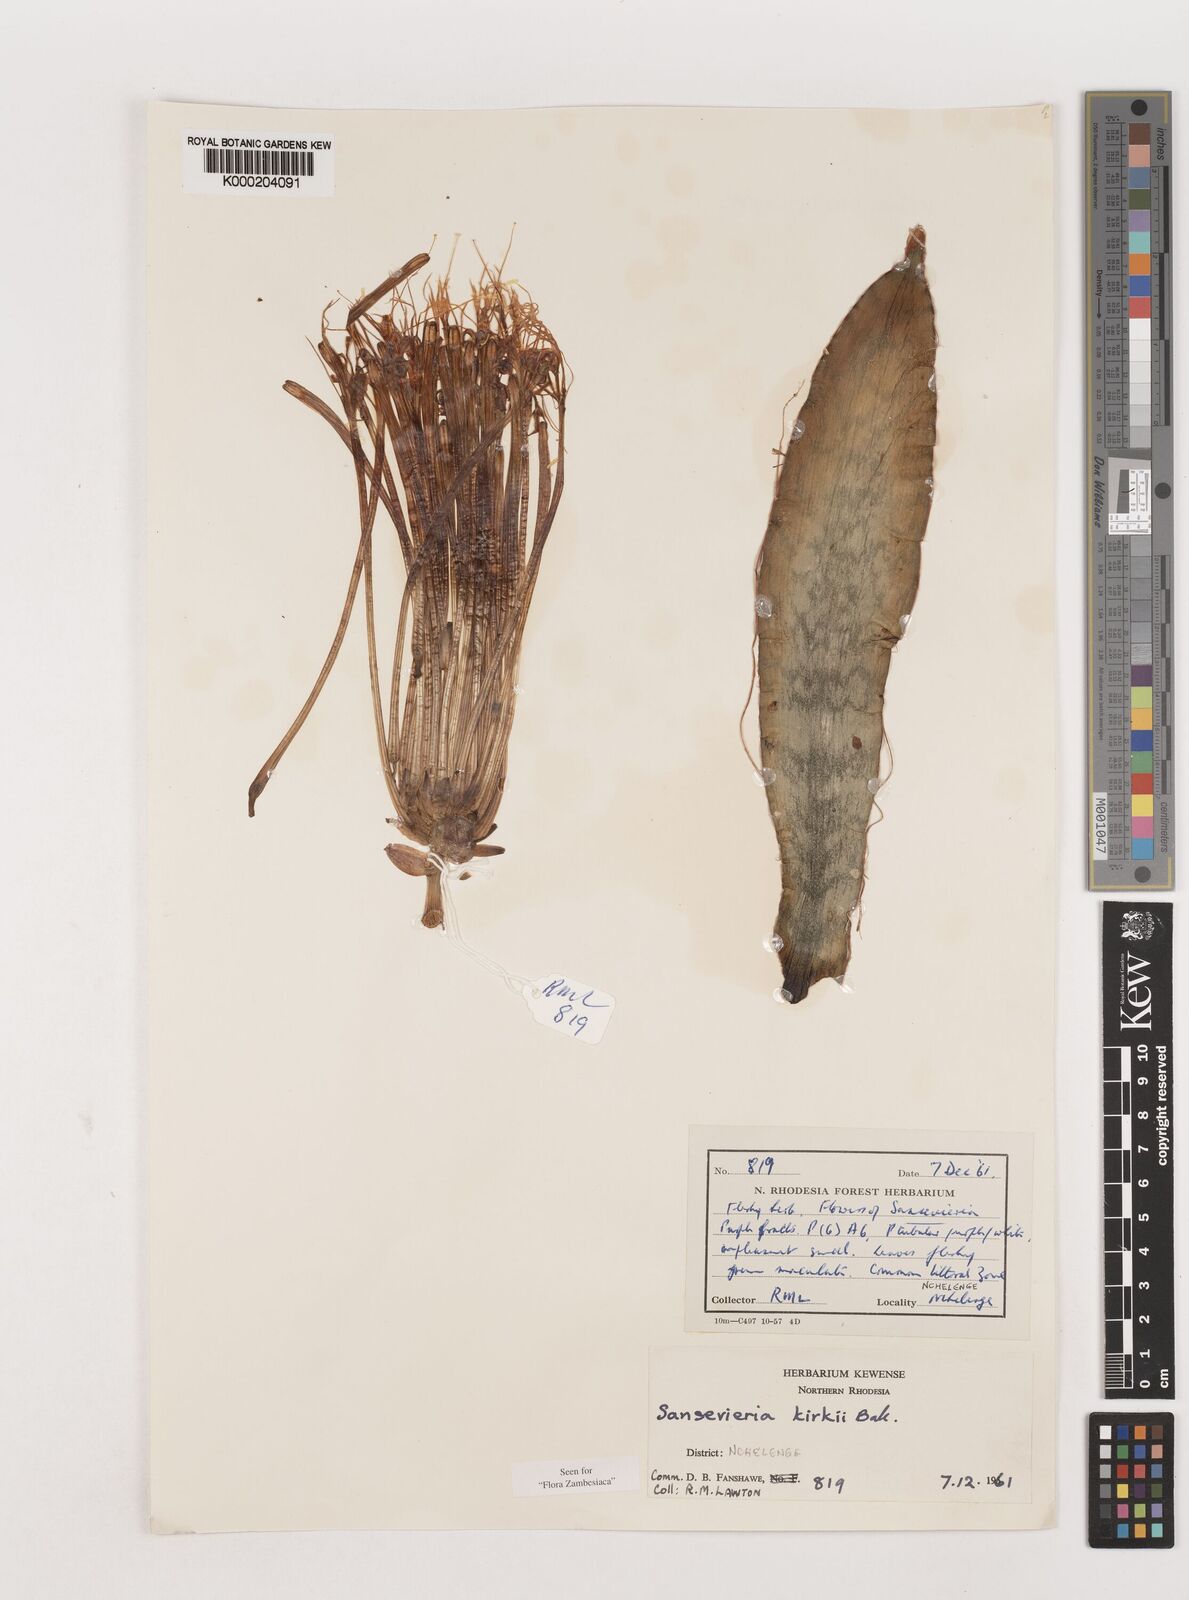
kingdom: Plantae
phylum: Tracheophyta
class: Liliopsida
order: Asparagales
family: Asparagaceae
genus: Dracaena
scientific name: Dracaena pethera
